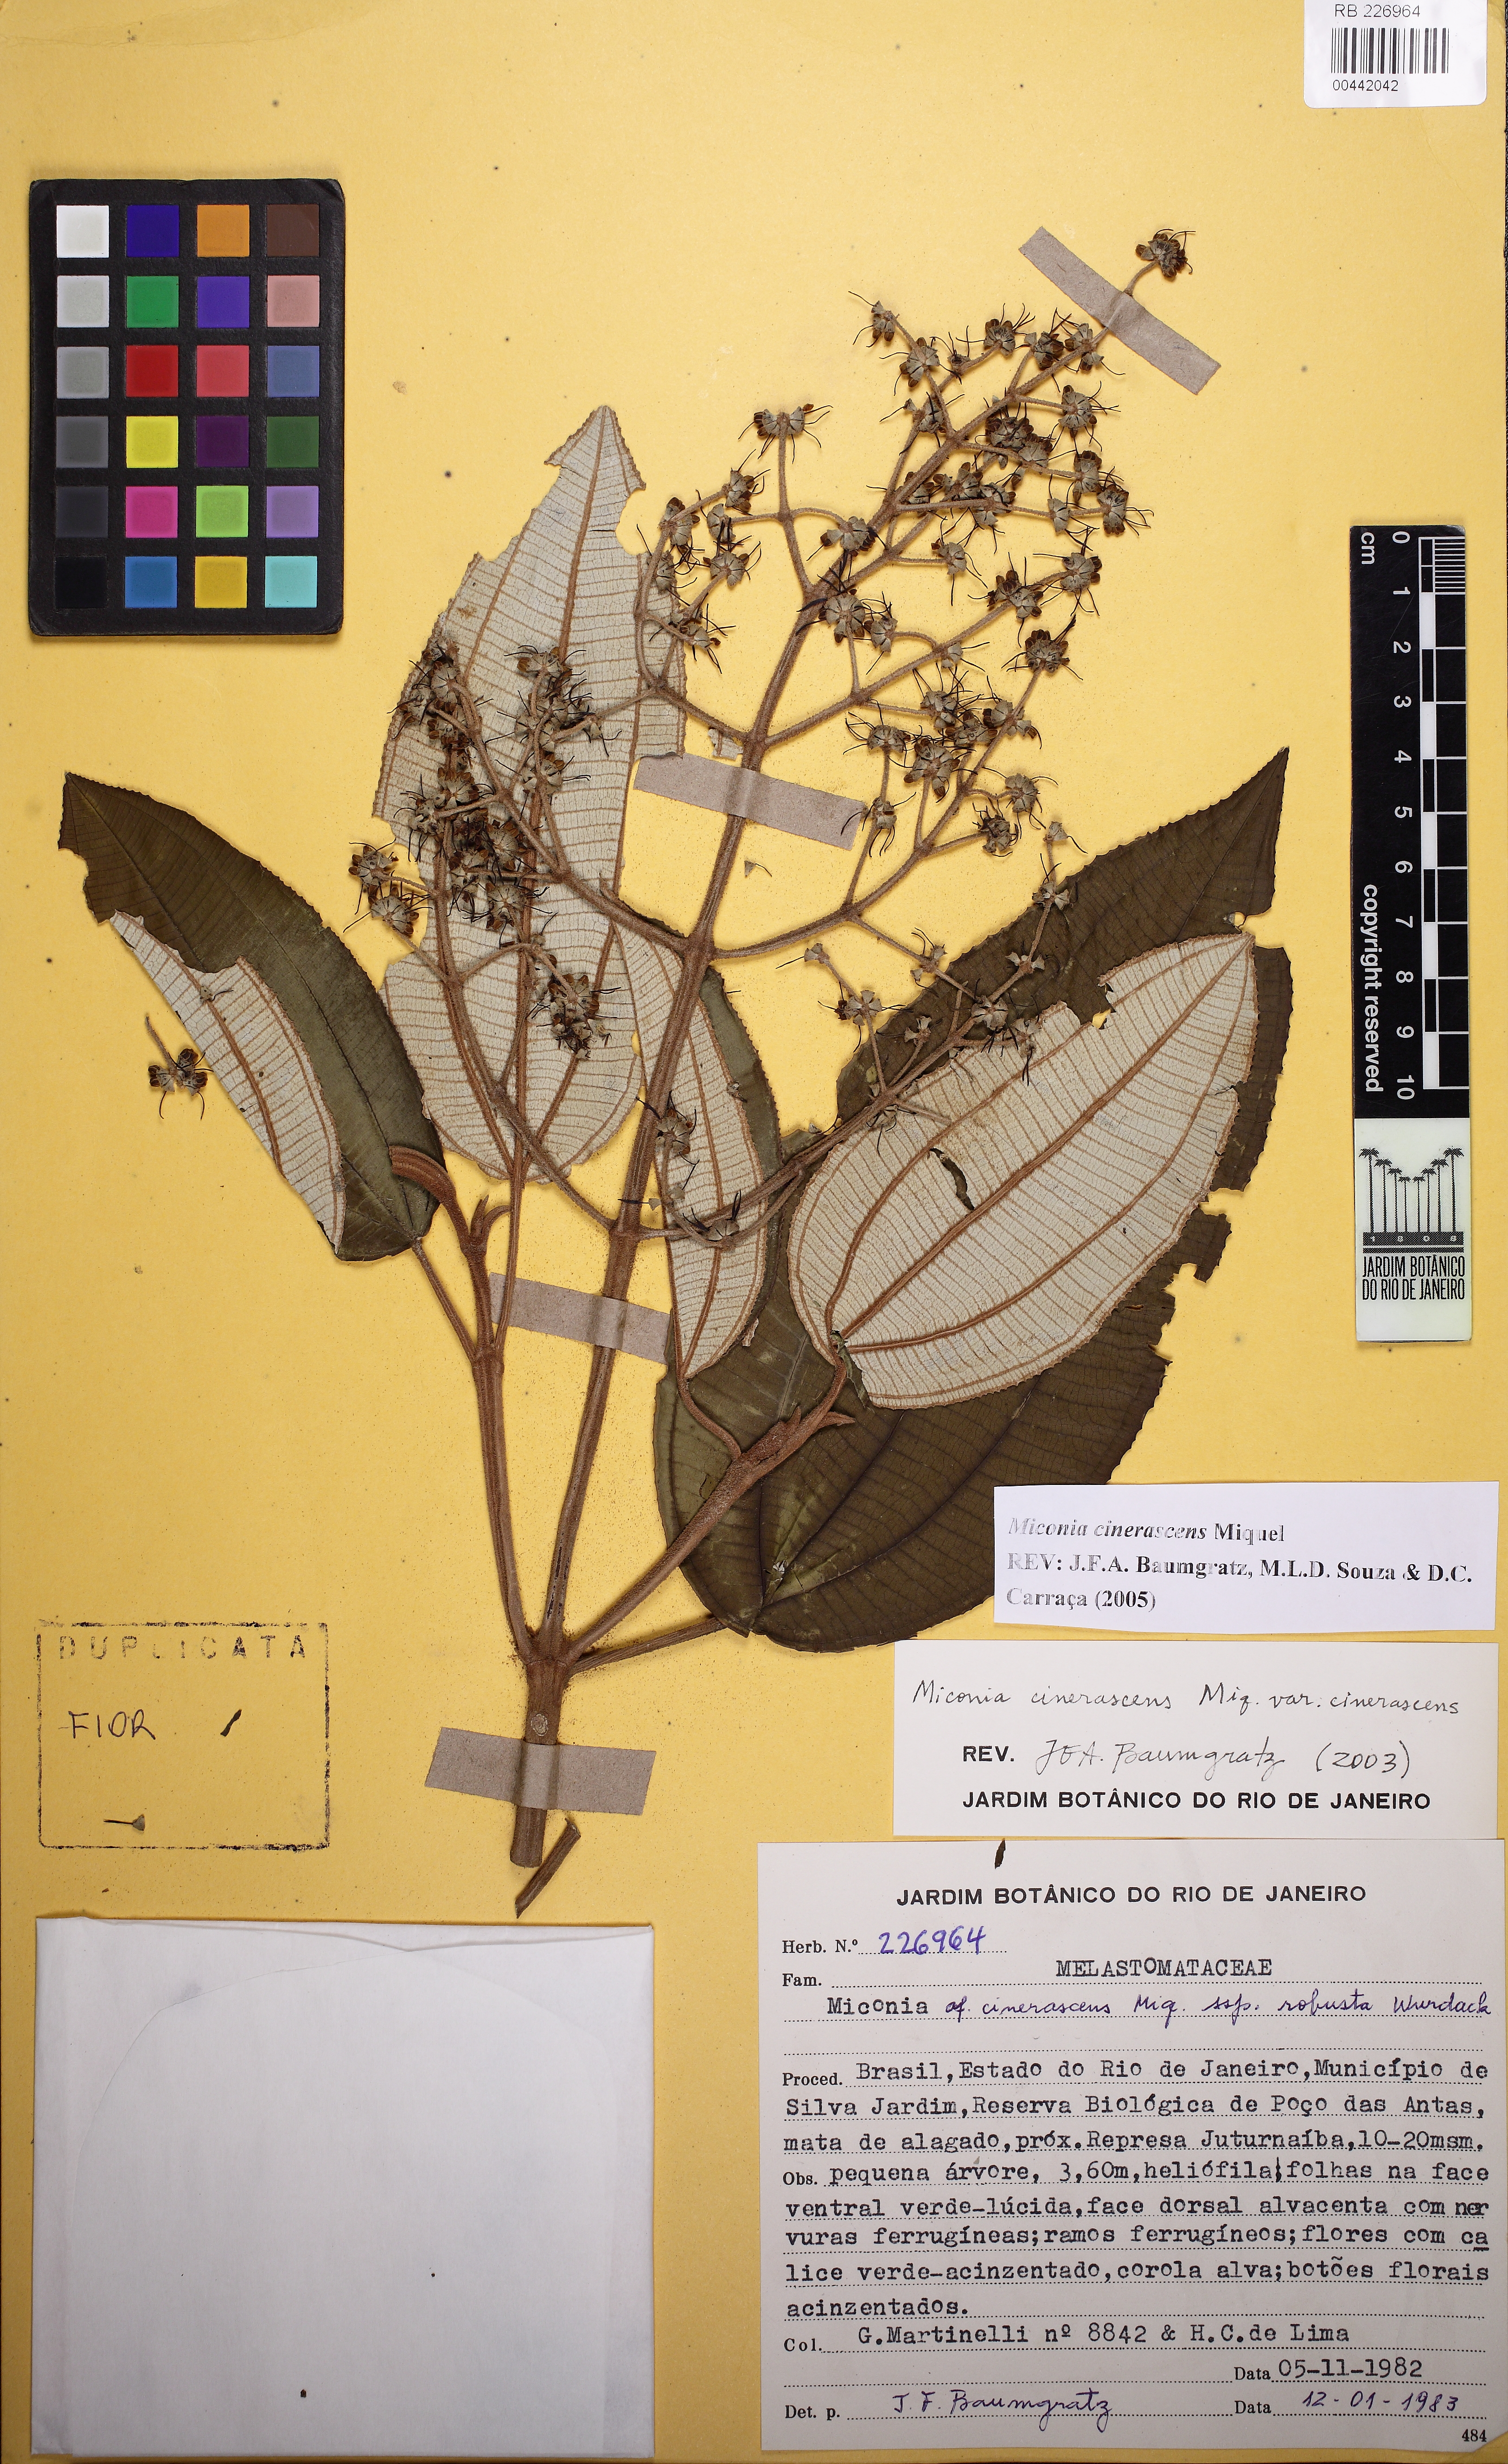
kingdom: Plantae
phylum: Tracheophyta
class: Magnoliopsida
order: Myrtales
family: Melastomataceae
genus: Miconia
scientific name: Miconia cinerascens
